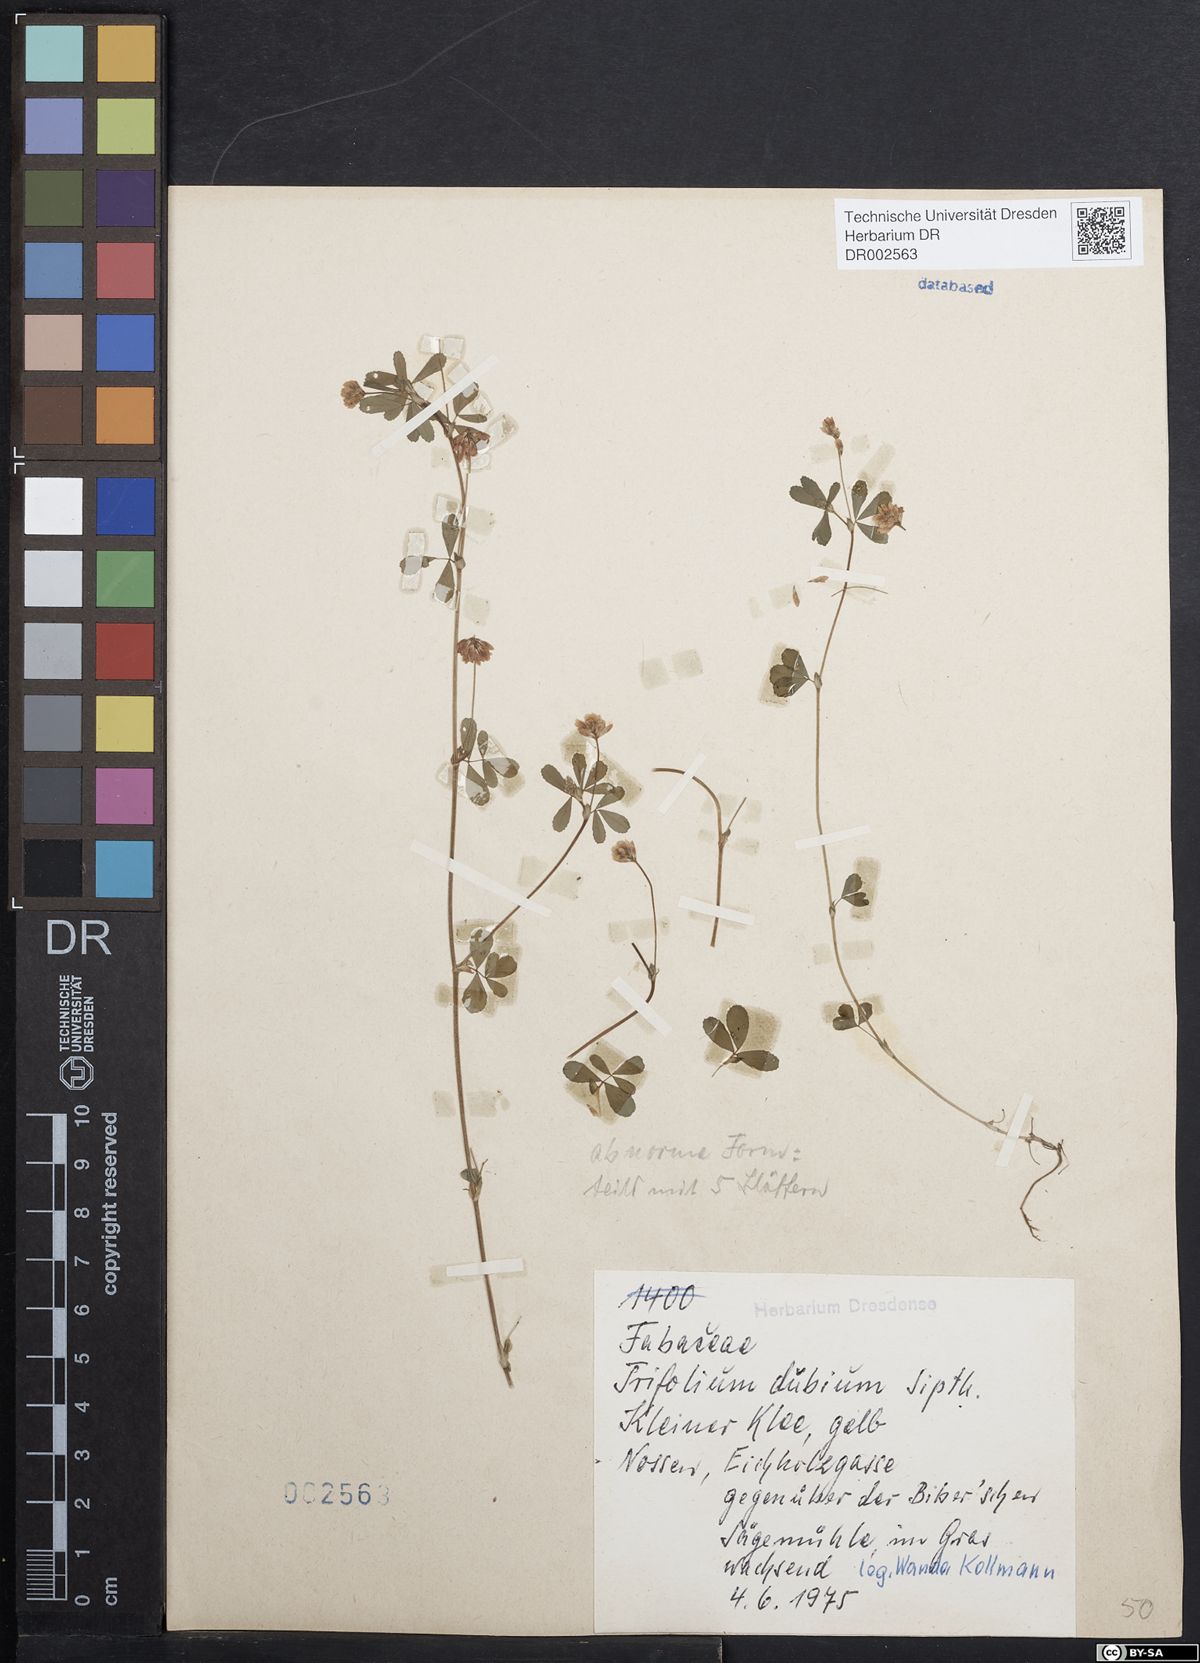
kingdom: Plantae
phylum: Tracheophyta
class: Magnoliopsida
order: Fabales
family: Fabaceae
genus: Trifolium
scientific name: Trifolium dubium
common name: Suckling clover
